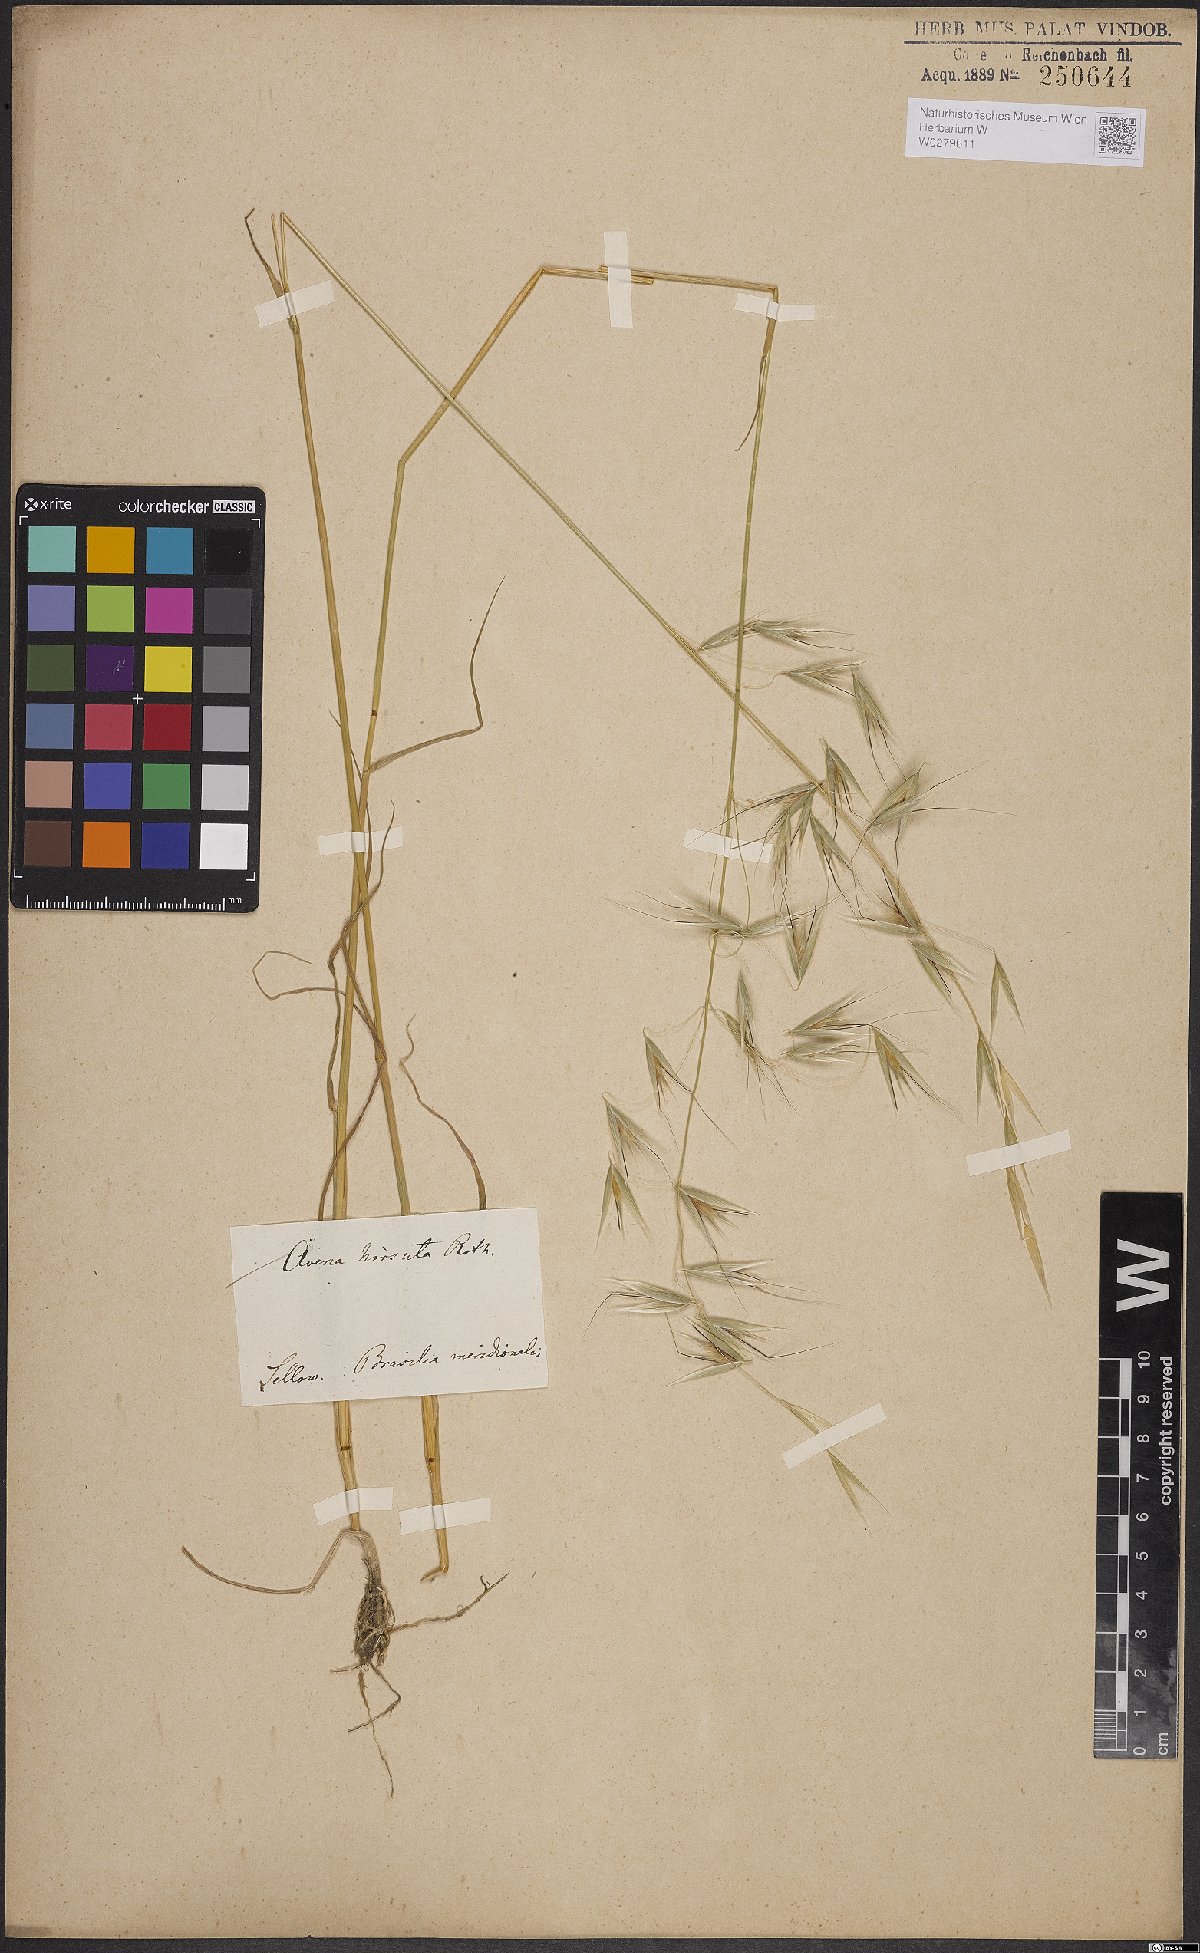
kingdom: Plantae
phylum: Tracheophyta
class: Liliopsida
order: Poales
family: Poaceae
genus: Avena
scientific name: Avena barbata
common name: Slender oat
